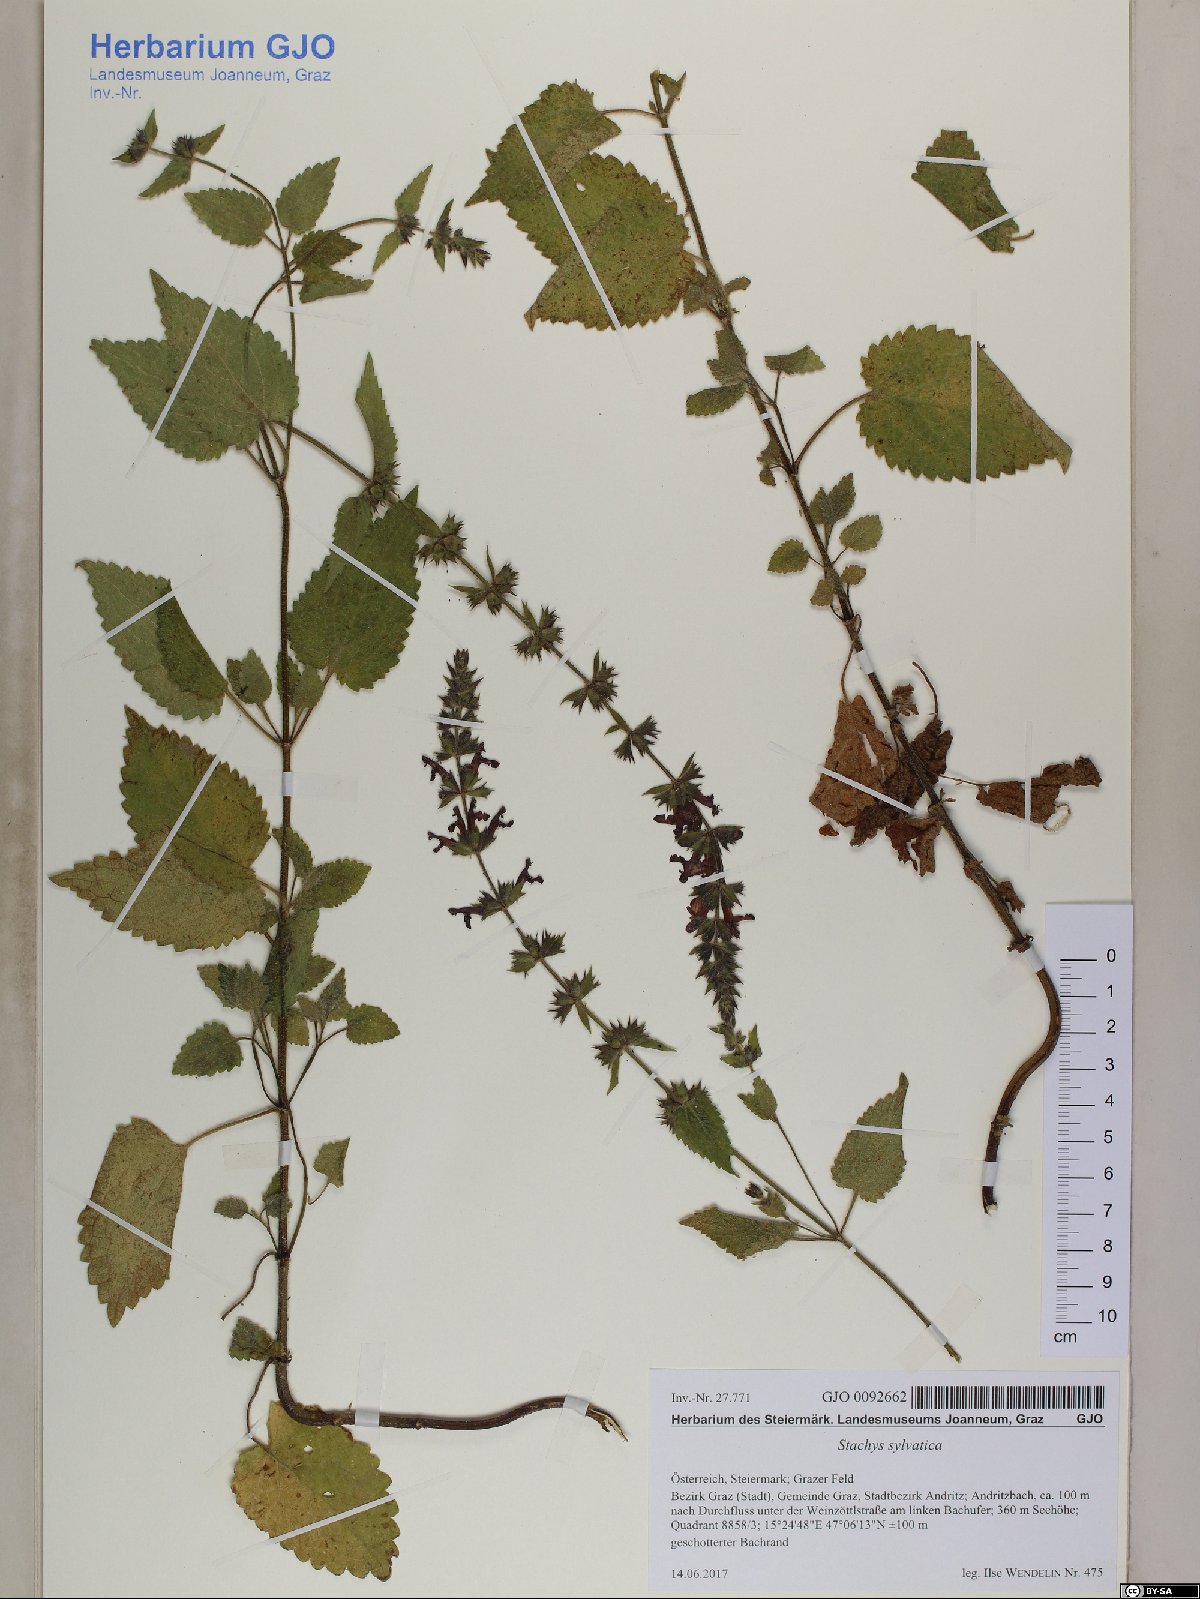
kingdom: Plantae
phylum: Tracheophyta
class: Magnoliopsida
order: Lamiales
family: Lamiaceae
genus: Stachys
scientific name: Stachys sylvatica
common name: Hedge woundwort
